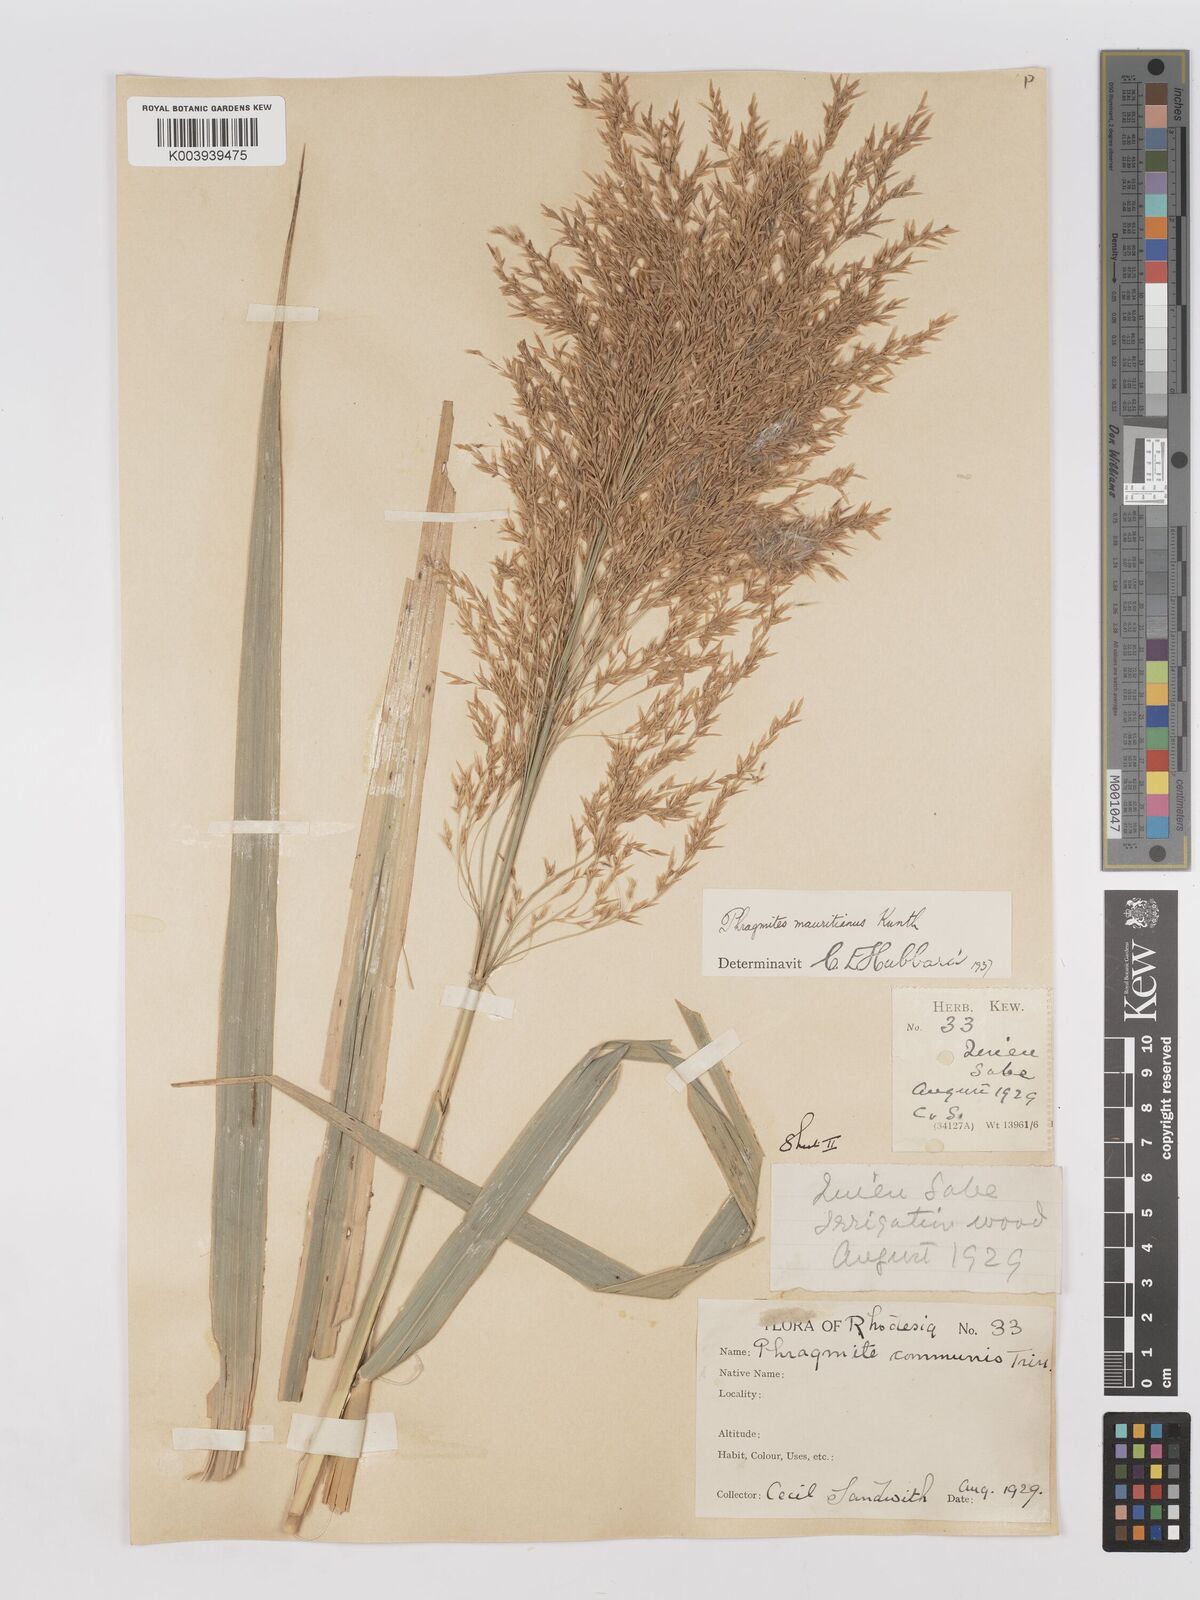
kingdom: Plantae
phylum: Tracheophyta
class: Liliopsida
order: Poales
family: Poaceae
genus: Phragmites
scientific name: Phragmites mauritianus
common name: Reed grass
